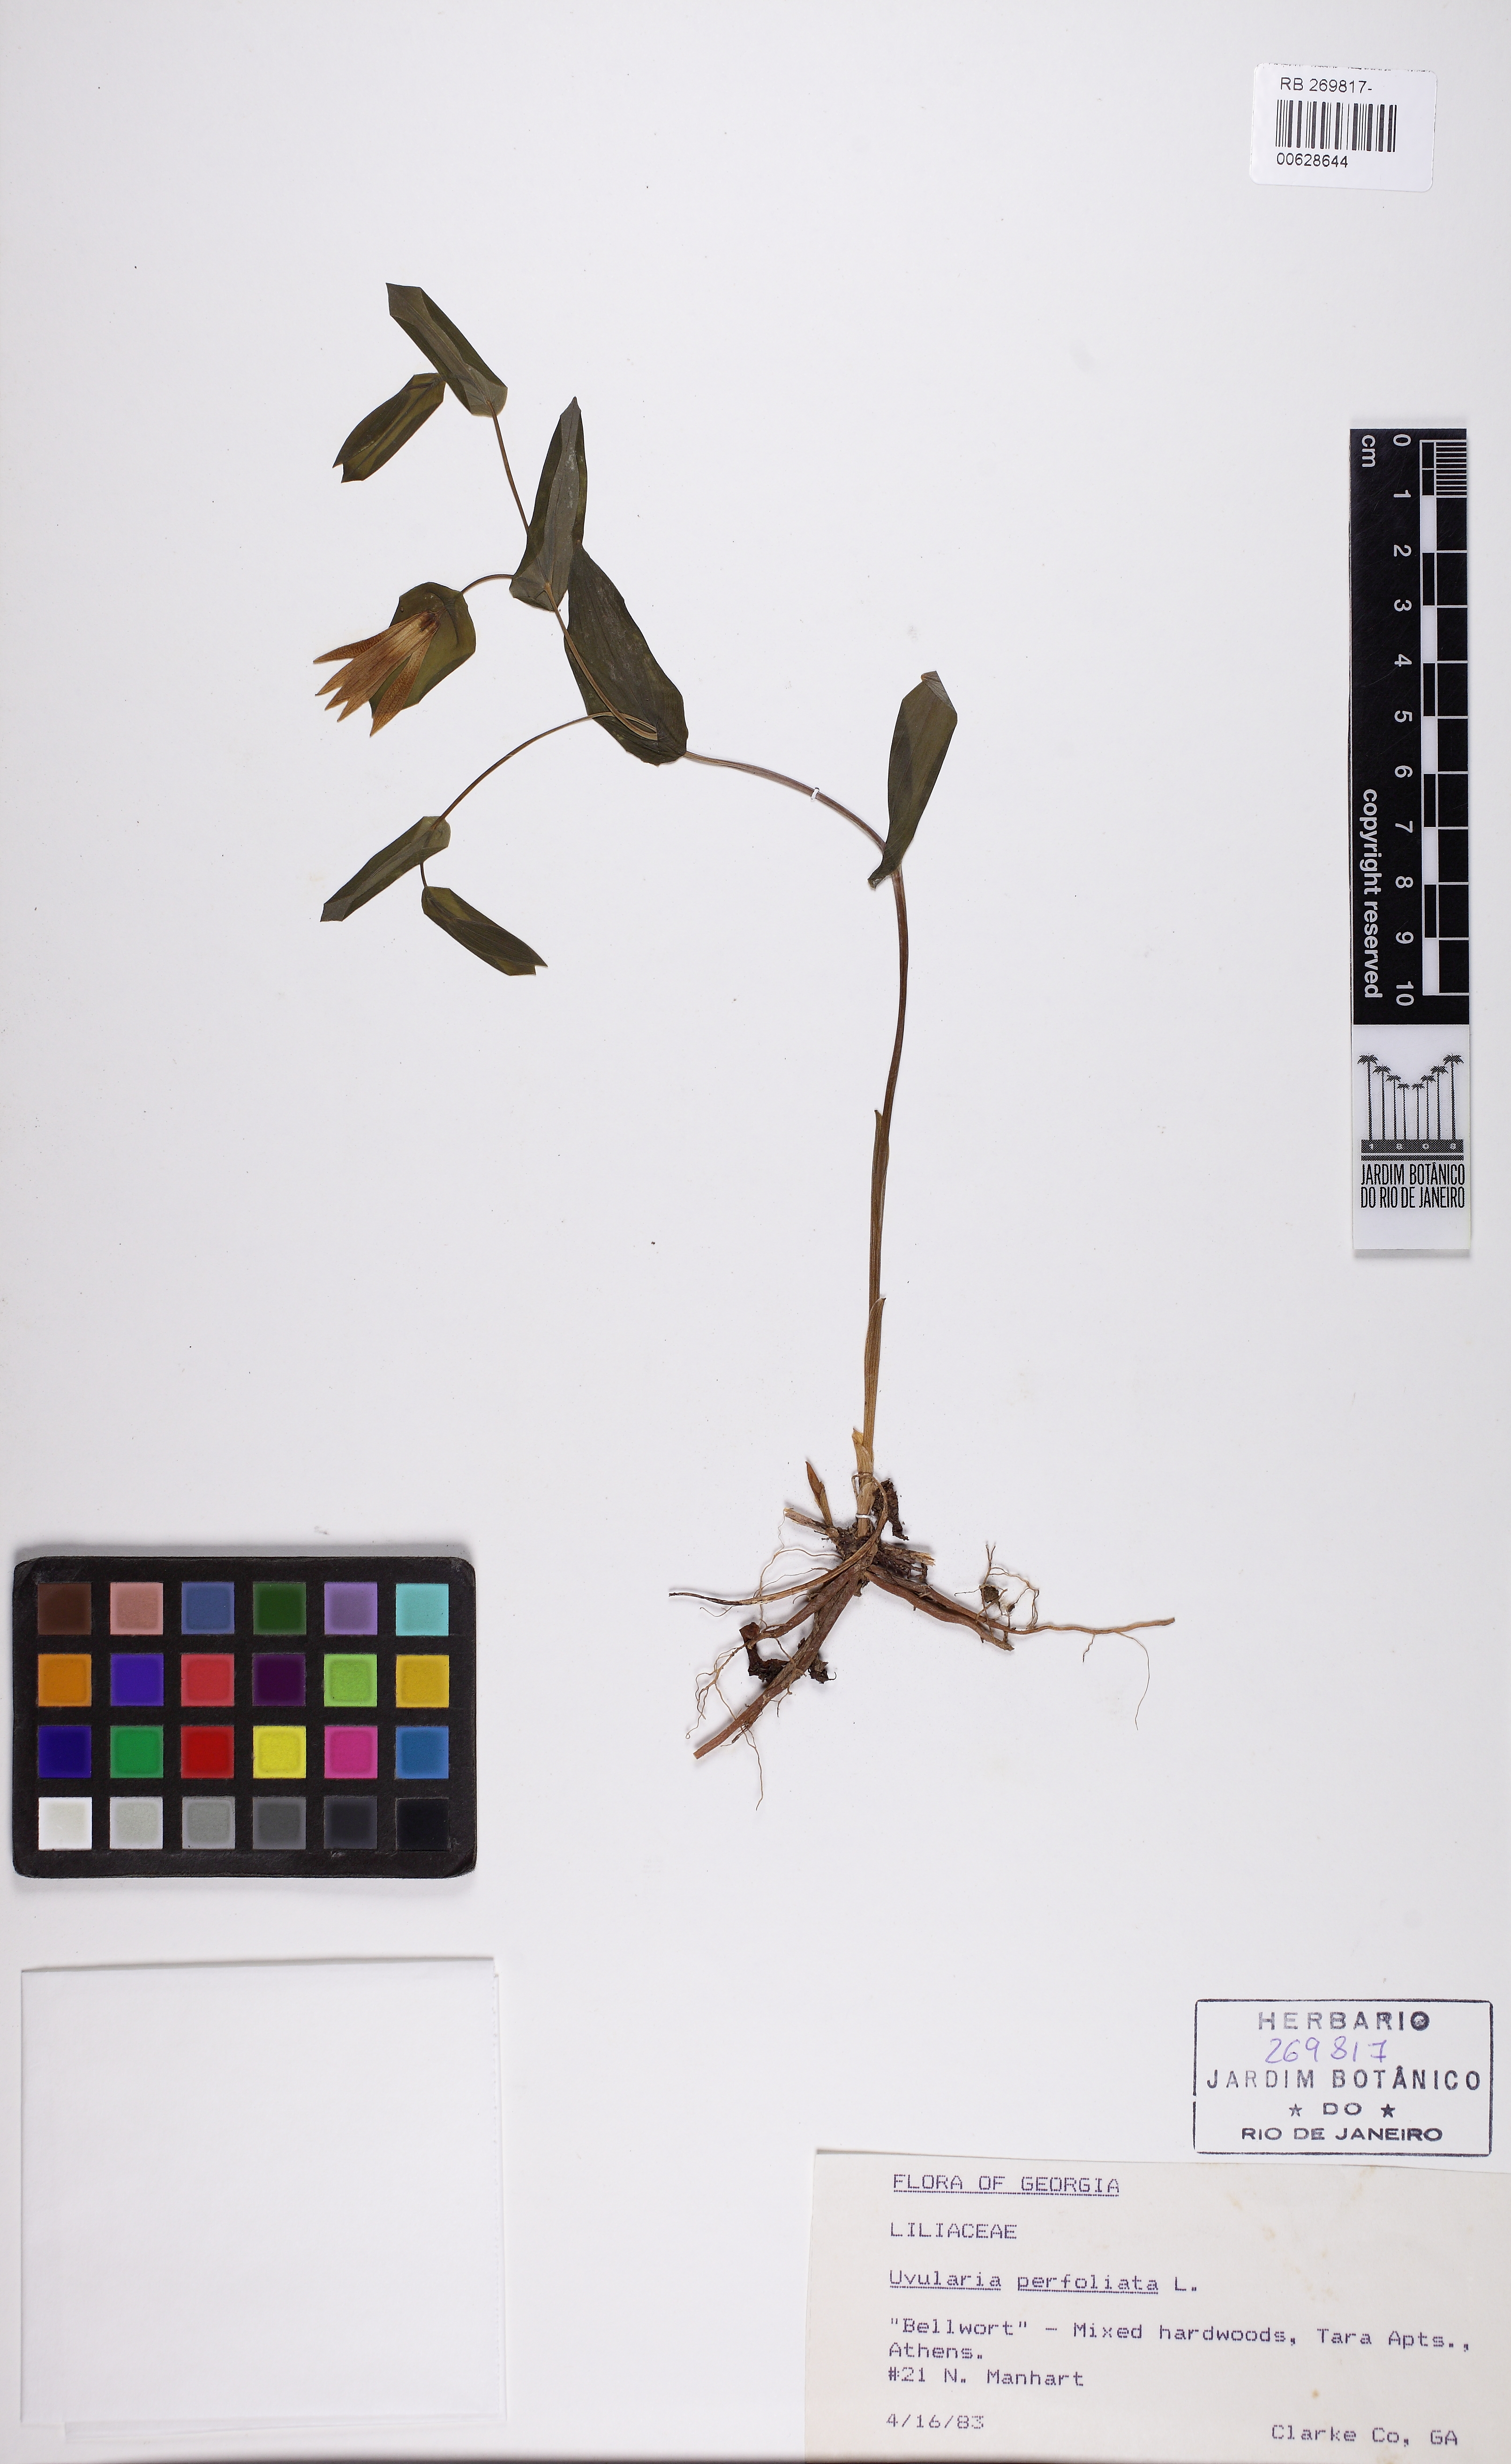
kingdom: Plantae
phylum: Tracheophyta
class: Liliopsida
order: Liliales
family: Colchicaceae
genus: Uvularia
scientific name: Uvularia perfoliata
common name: Perfoliate bellwort
